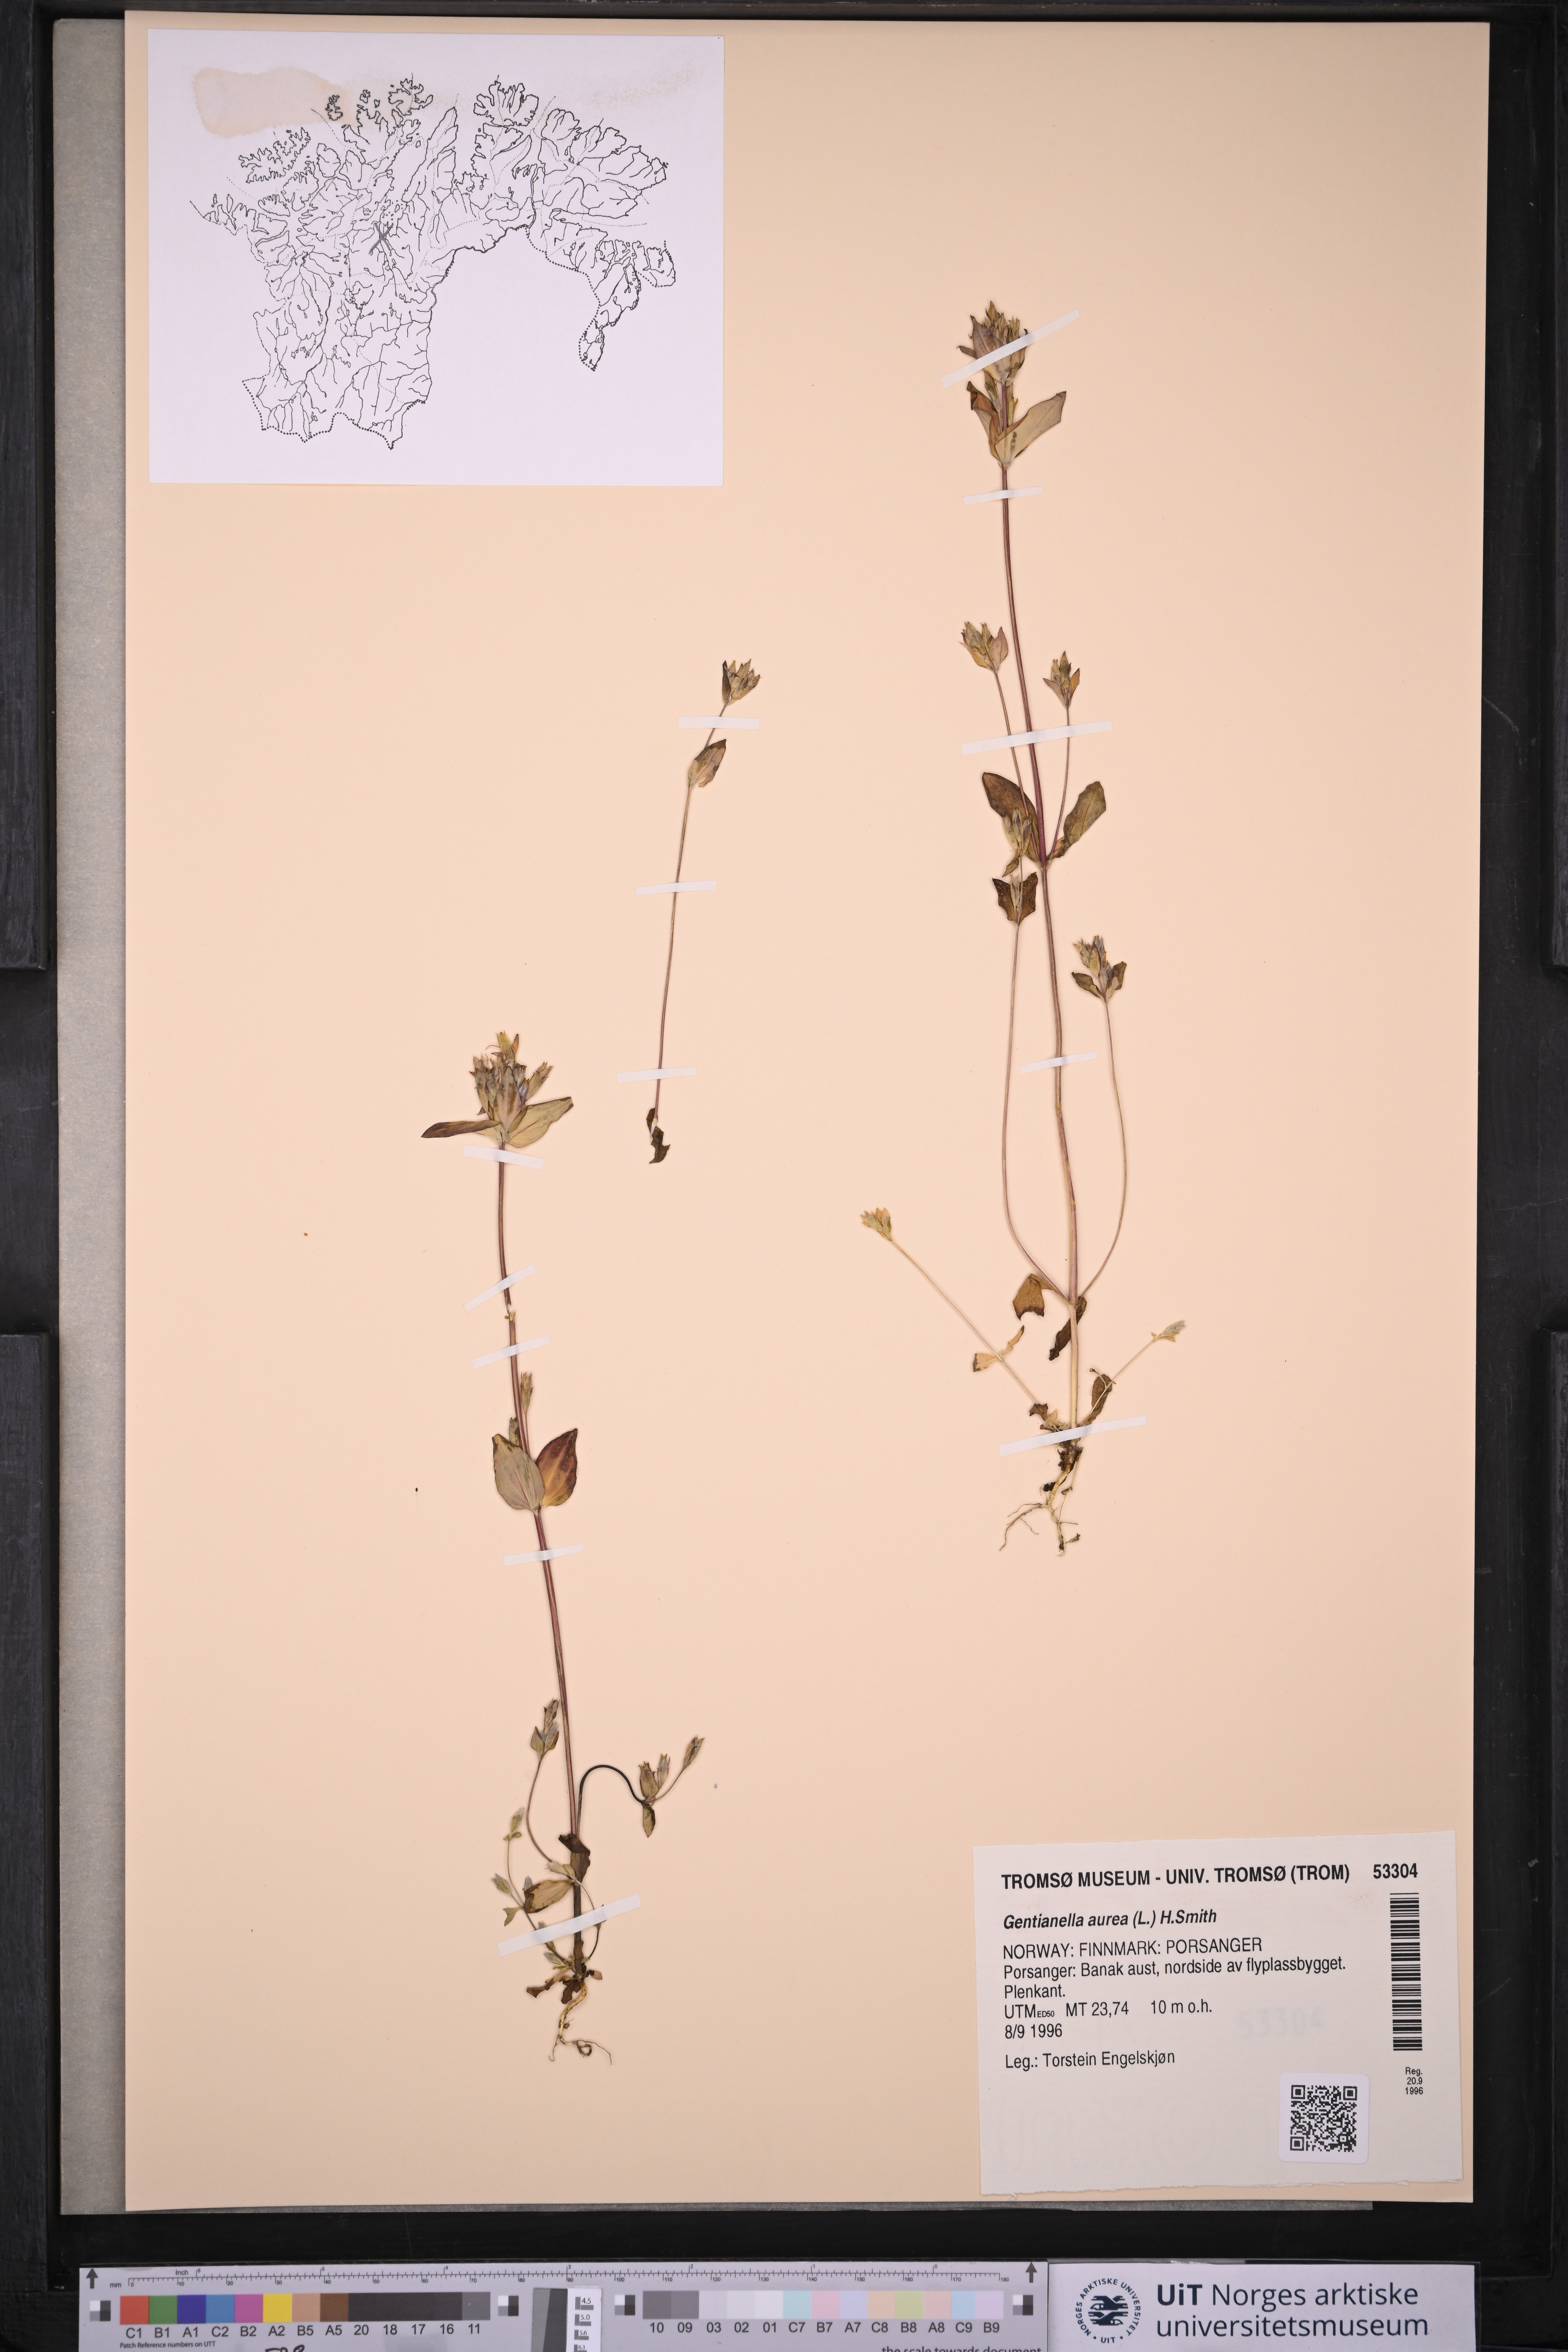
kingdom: Plantae
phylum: Tracheophyta
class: Magnoliopsida
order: Gentianales
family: Gentianaceae
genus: Gentianella
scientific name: Gentianella aurea
